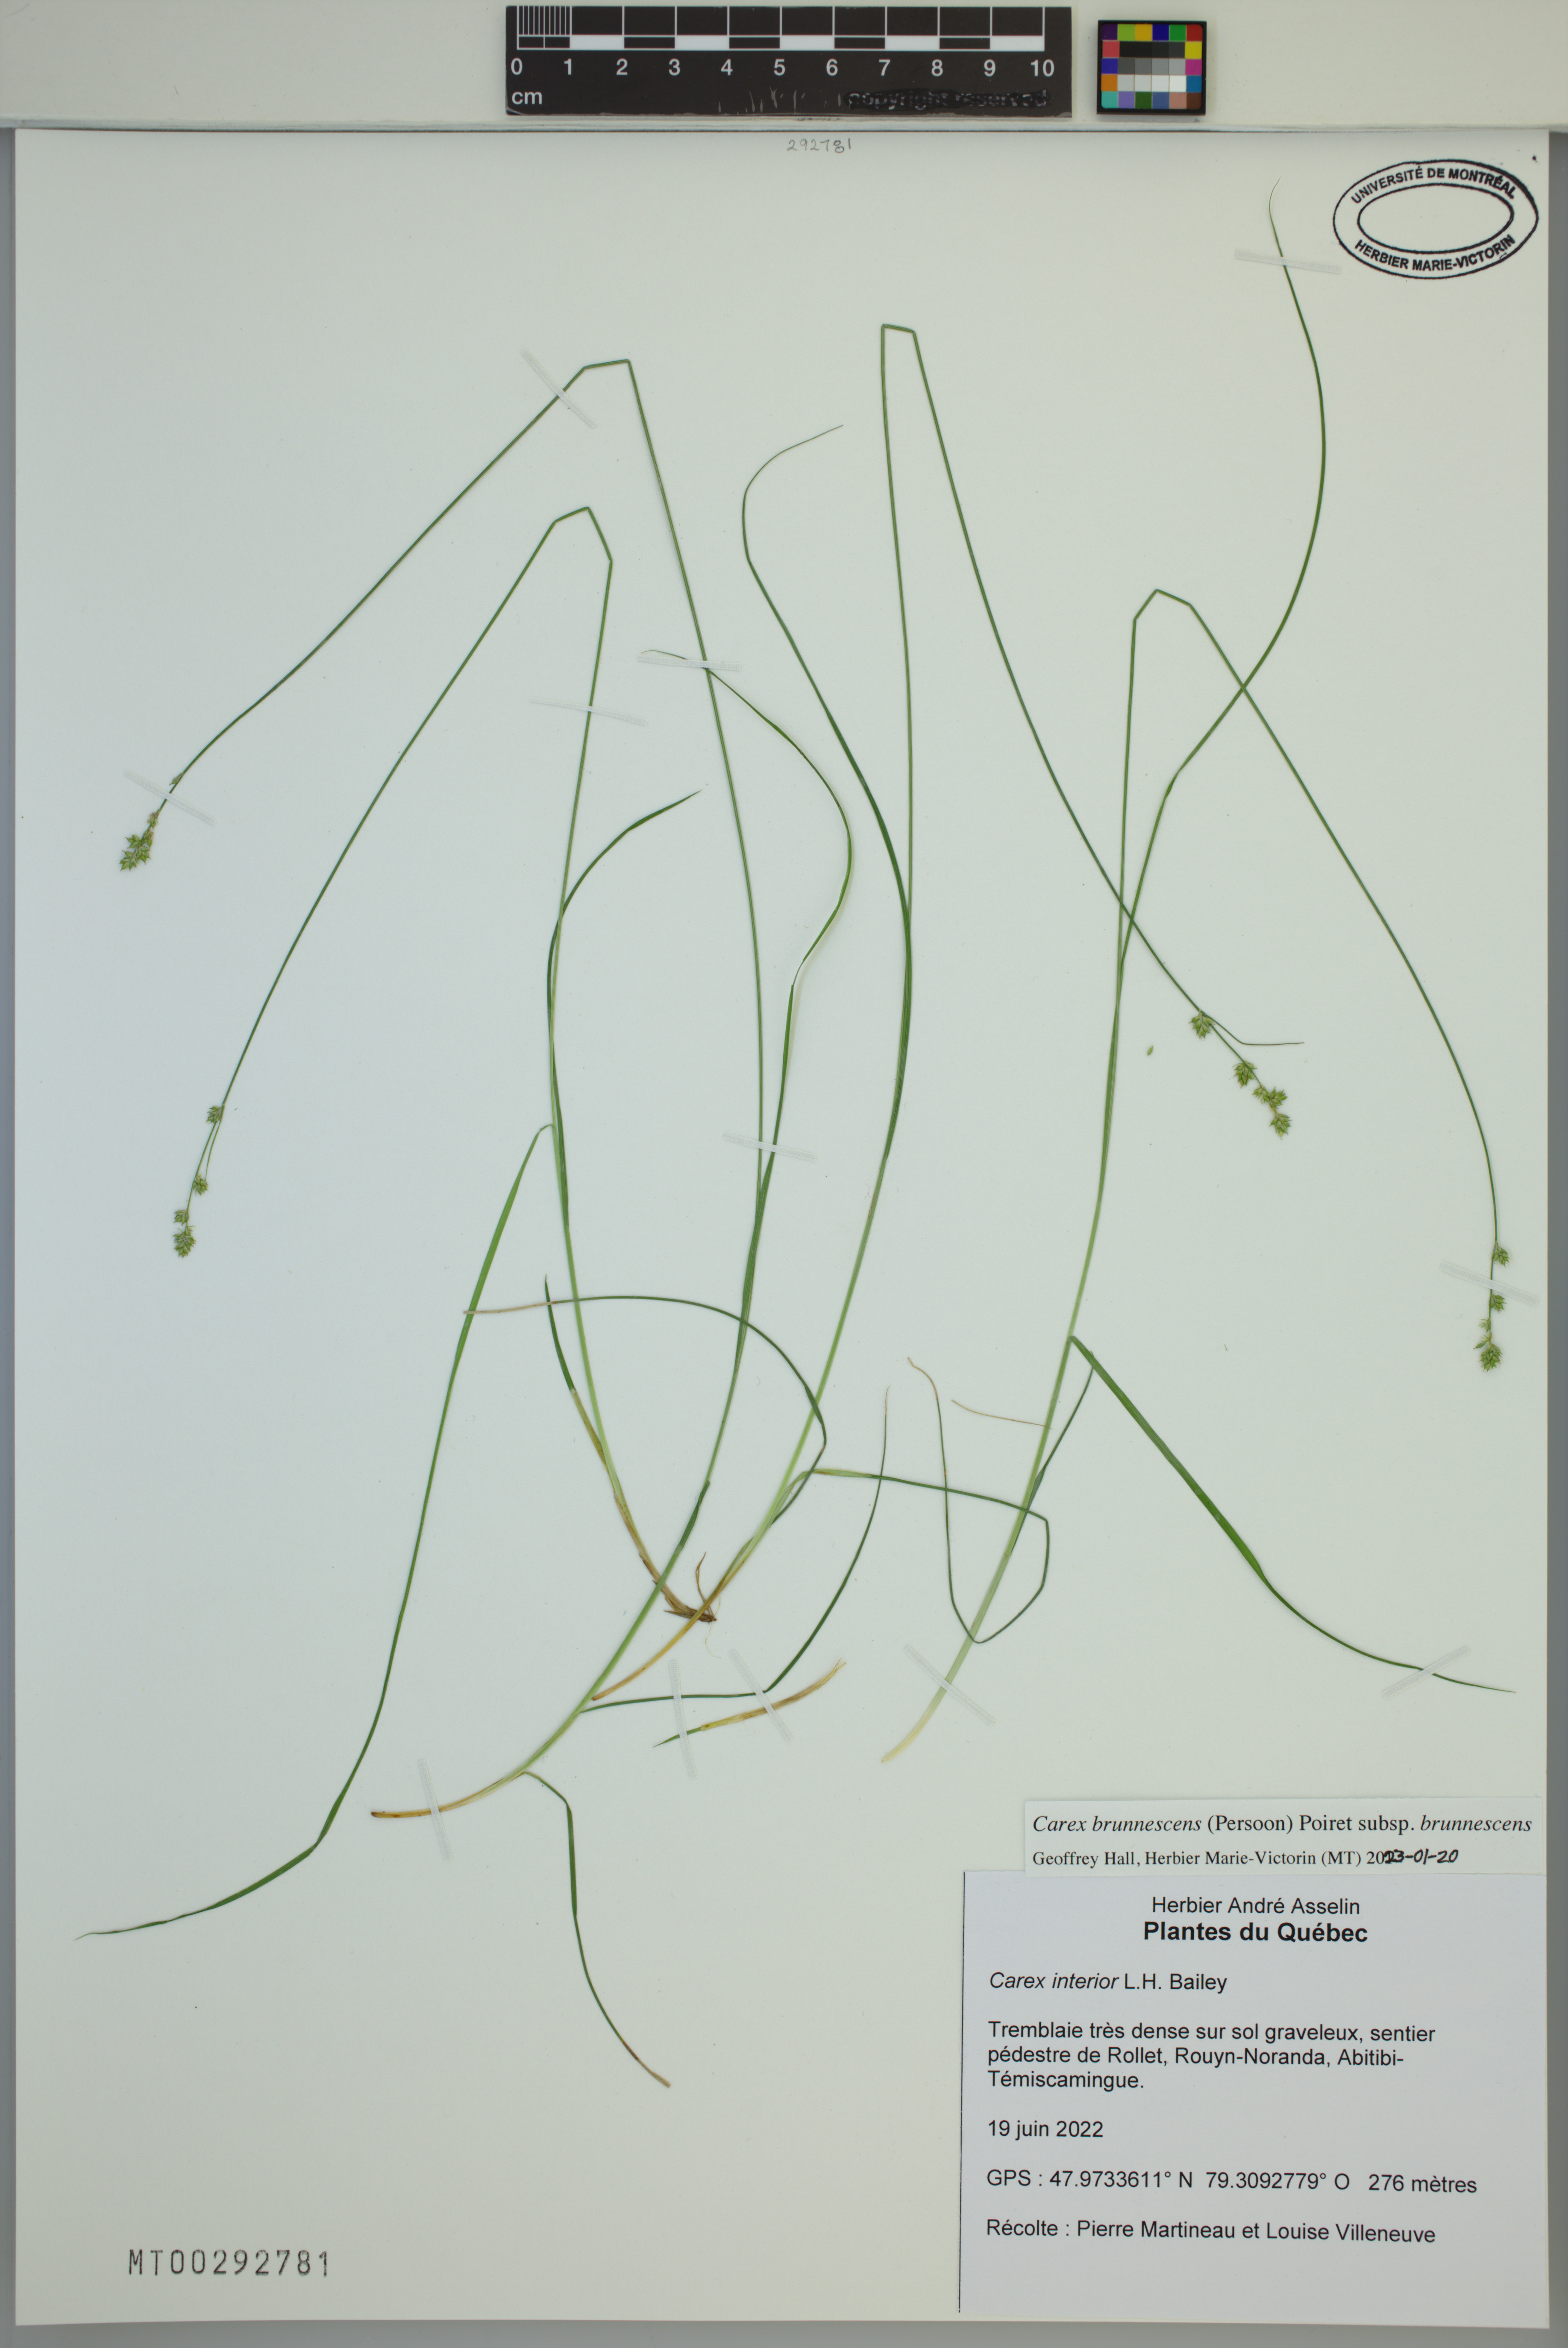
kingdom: Plantae
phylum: Tracheophyta
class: Liliopsida
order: Poales
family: Cyperaceae
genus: Carex
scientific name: Carex brunnescens
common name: Brown sedge
